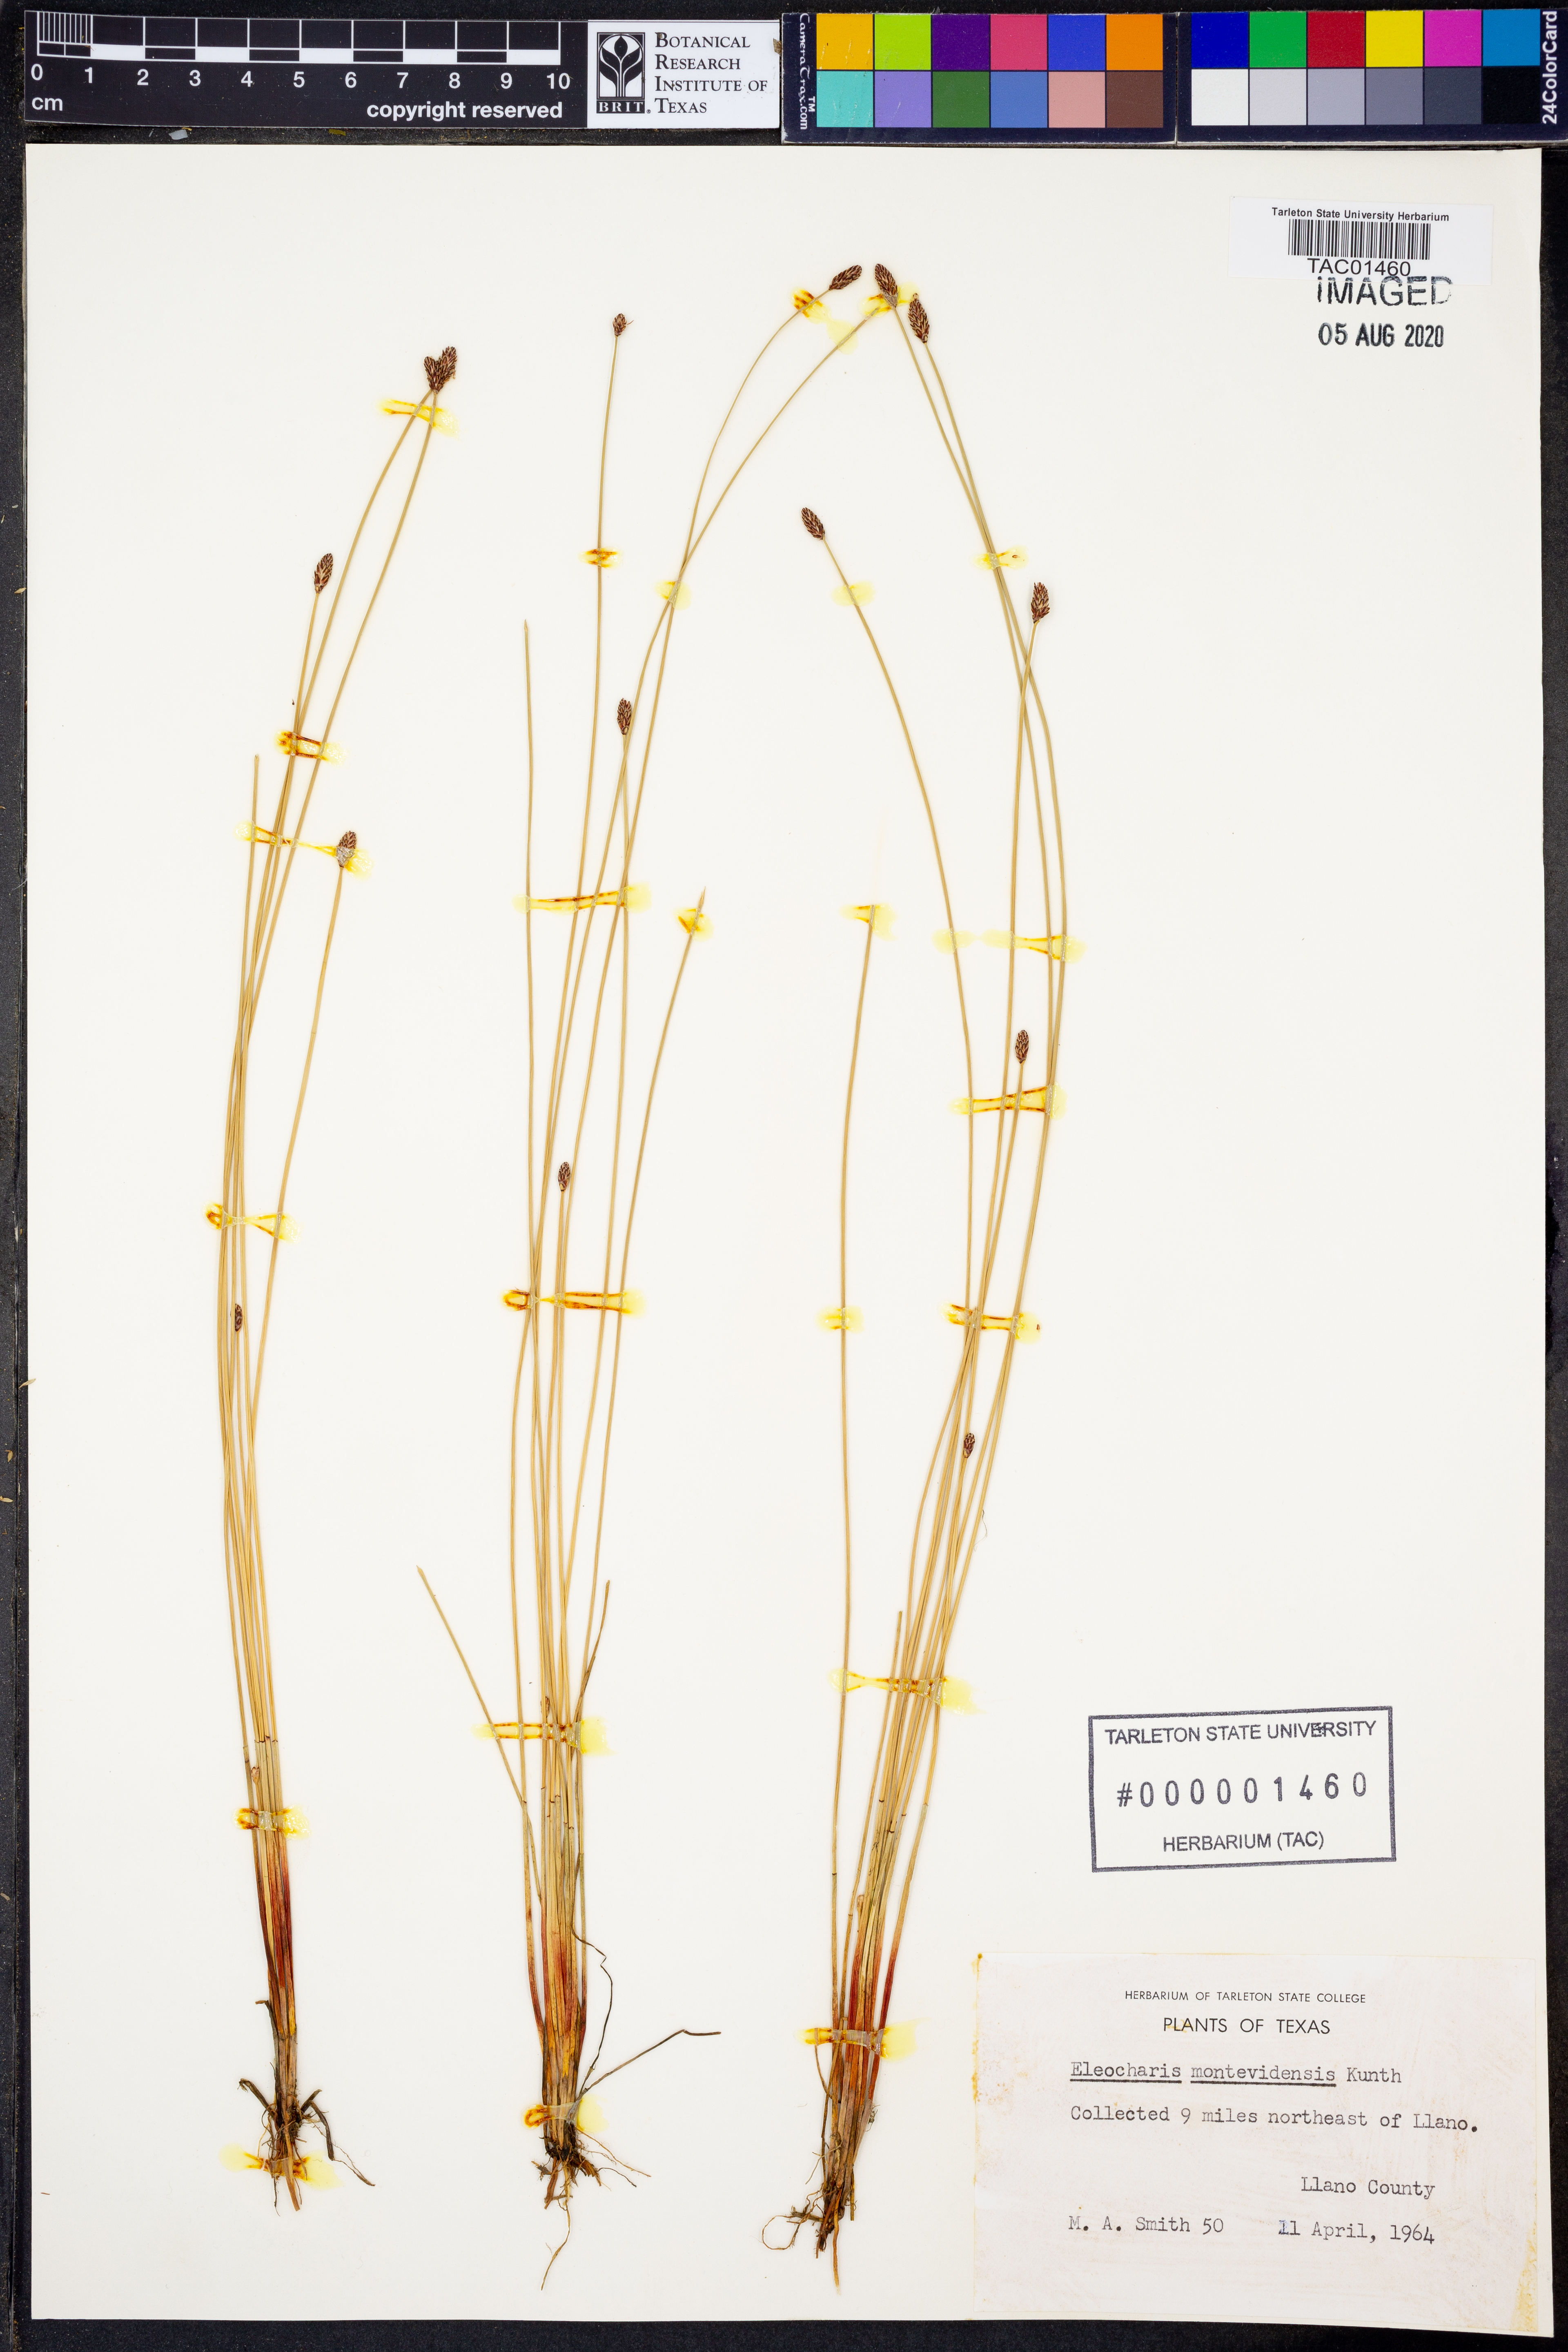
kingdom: Plantae
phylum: Tracheophyta
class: Liliopsida
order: Poales
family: Cyperaceae
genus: Eleocharis
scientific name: Eleocharis montevidensis
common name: Sand spike-rush
